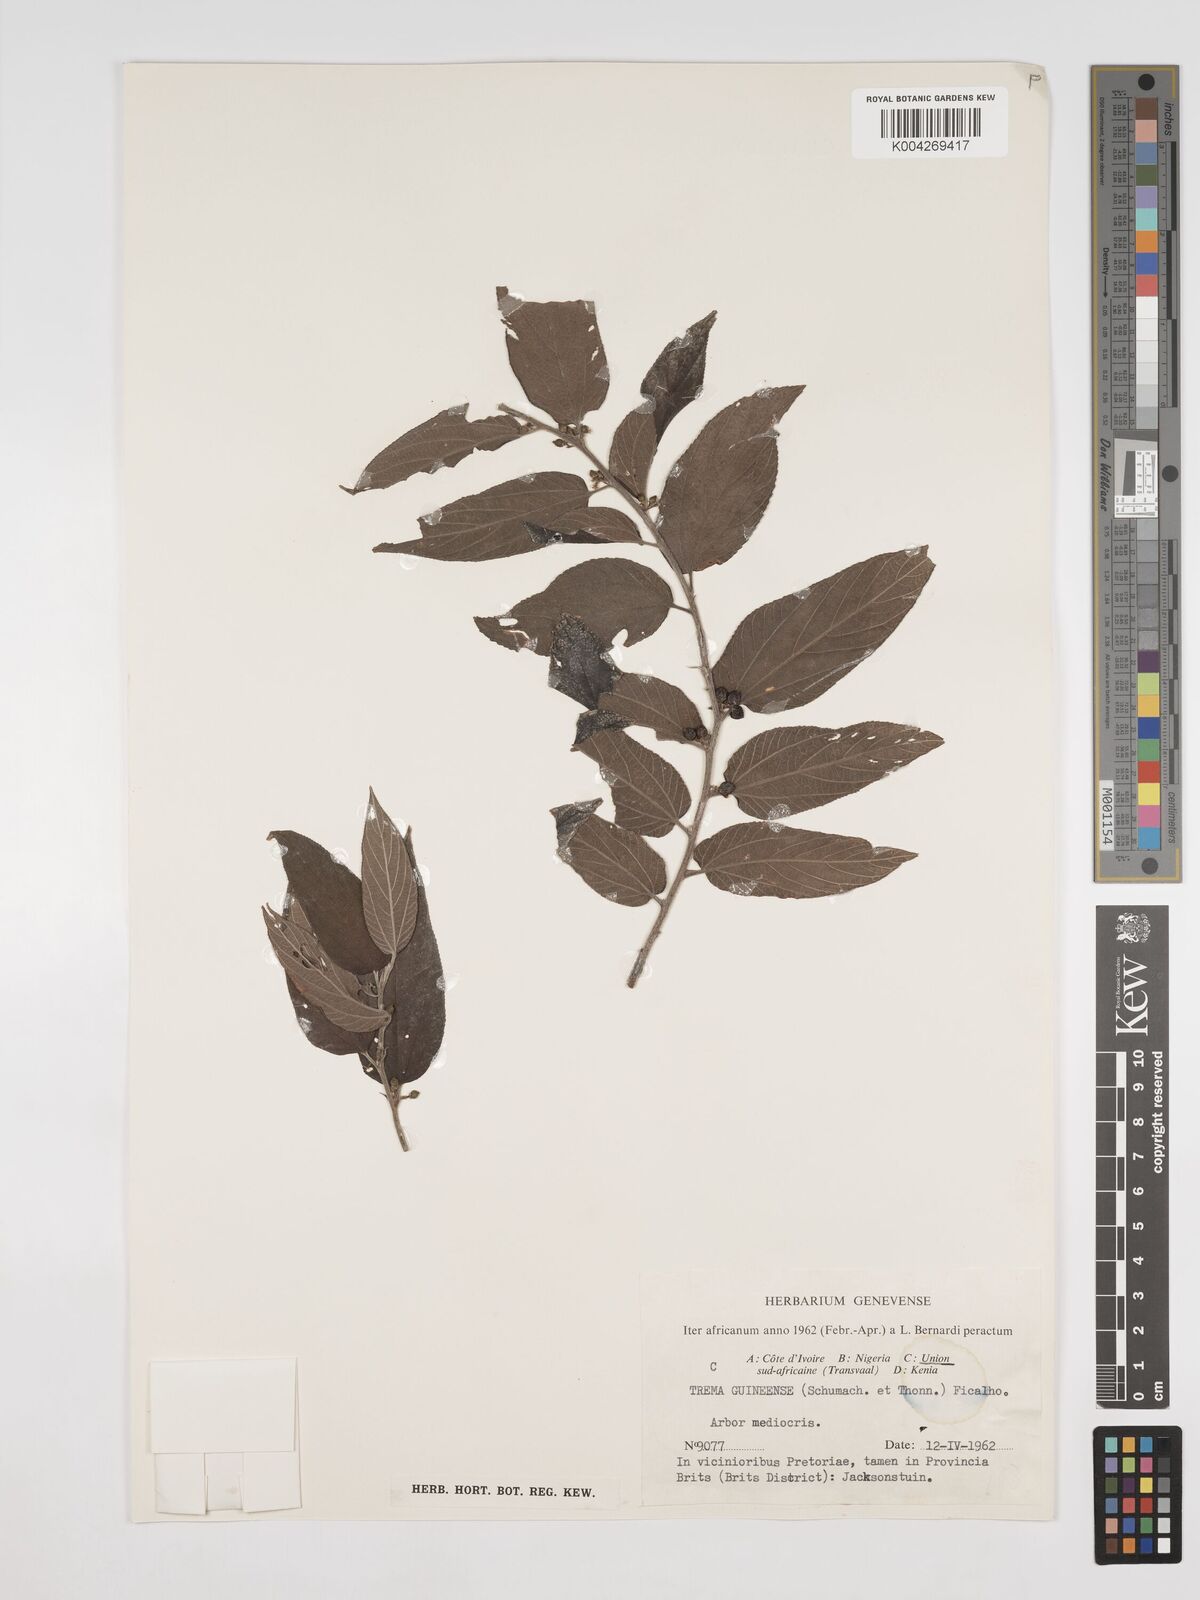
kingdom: Plantae
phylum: Tracheophyta
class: Magnoliopsida
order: Rosales
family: Cannabaceae
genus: Trema
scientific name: Trema orientale
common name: Indian charcoal tree
